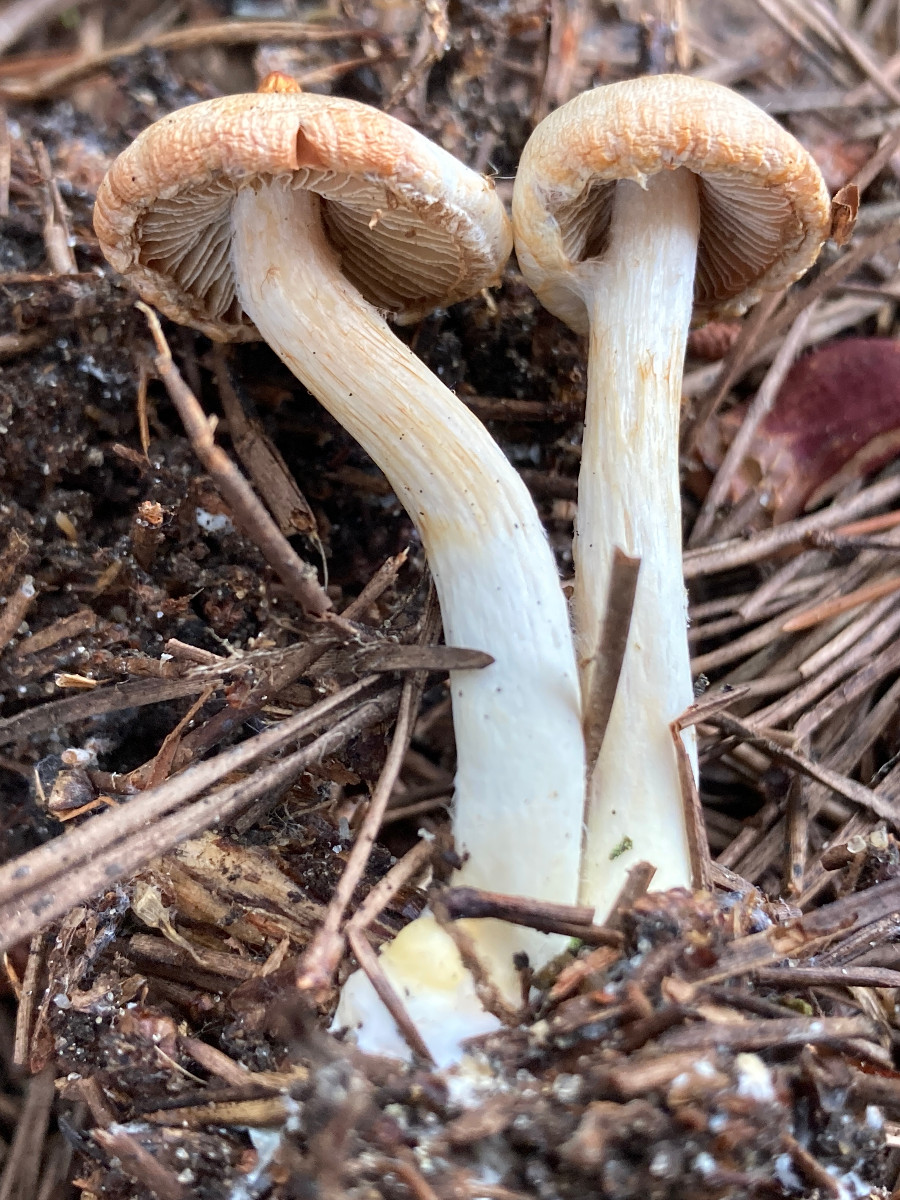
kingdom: Fungi
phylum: Basidiomycota
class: Agaricomycetes
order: Agaricales
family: Inocybaceae
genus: Inocybe
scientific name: Inocybe
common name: trævlhat
